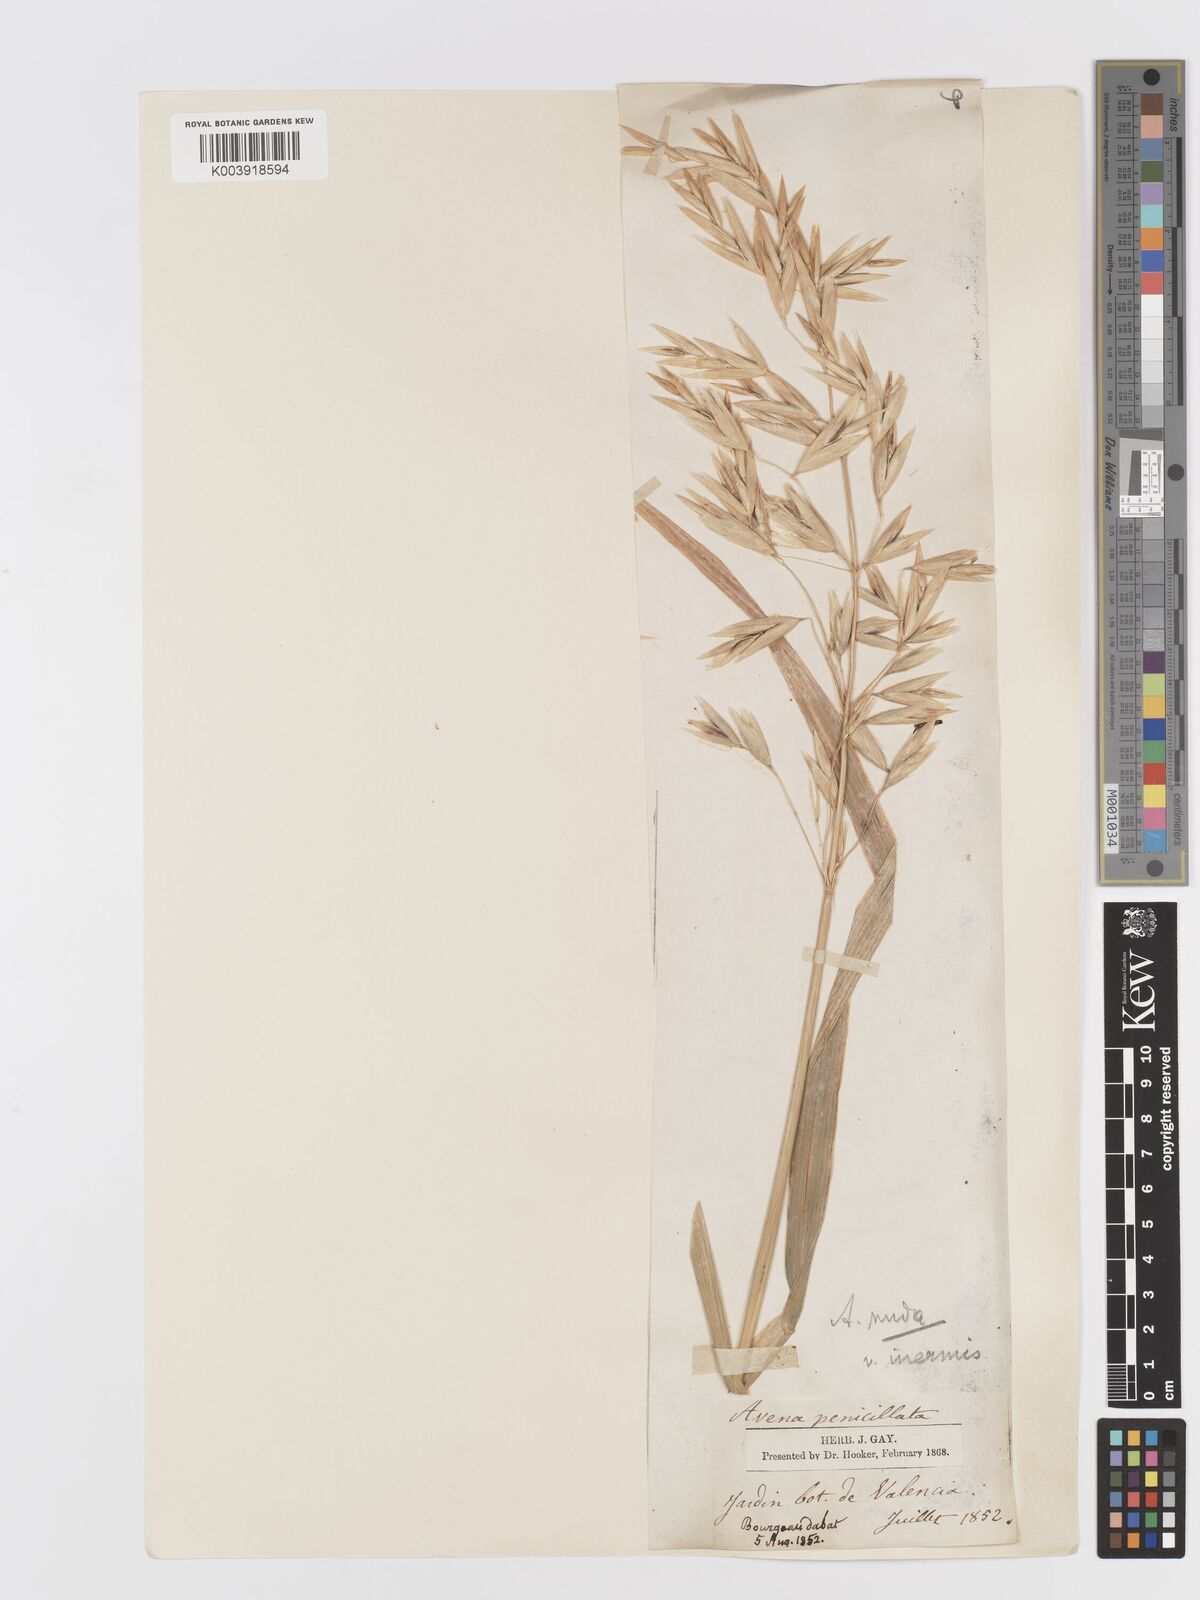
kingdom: Plantae
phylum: Tracheophyta
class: Liliopsida
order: Poales
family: Poaceae
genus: Avena
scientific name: Avena chinensis
